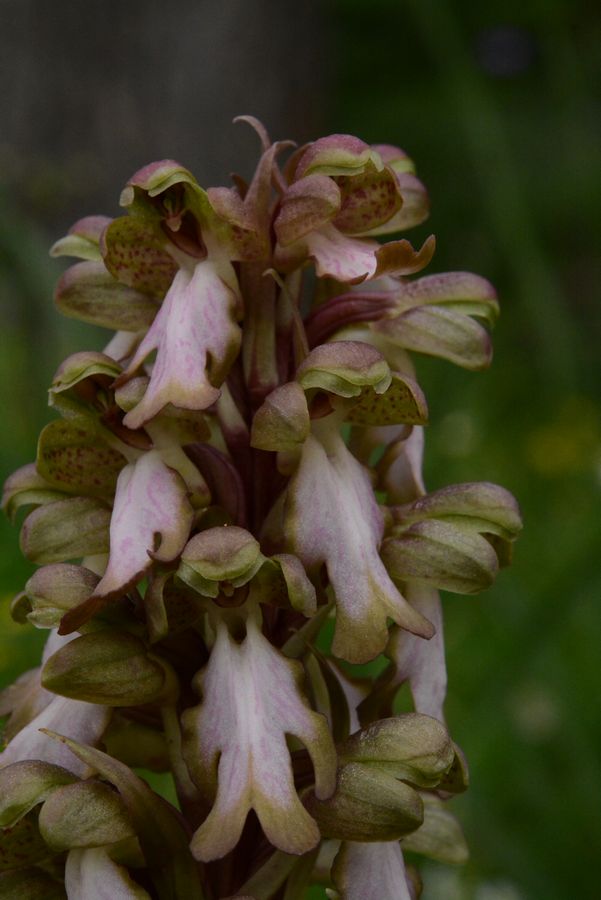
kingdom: Plantae
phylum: Tracheophyta
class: Liliopsida
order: Asparagales
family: Orchidaceae
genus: Himantoglossum
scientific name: Himantoglossum robertianum
